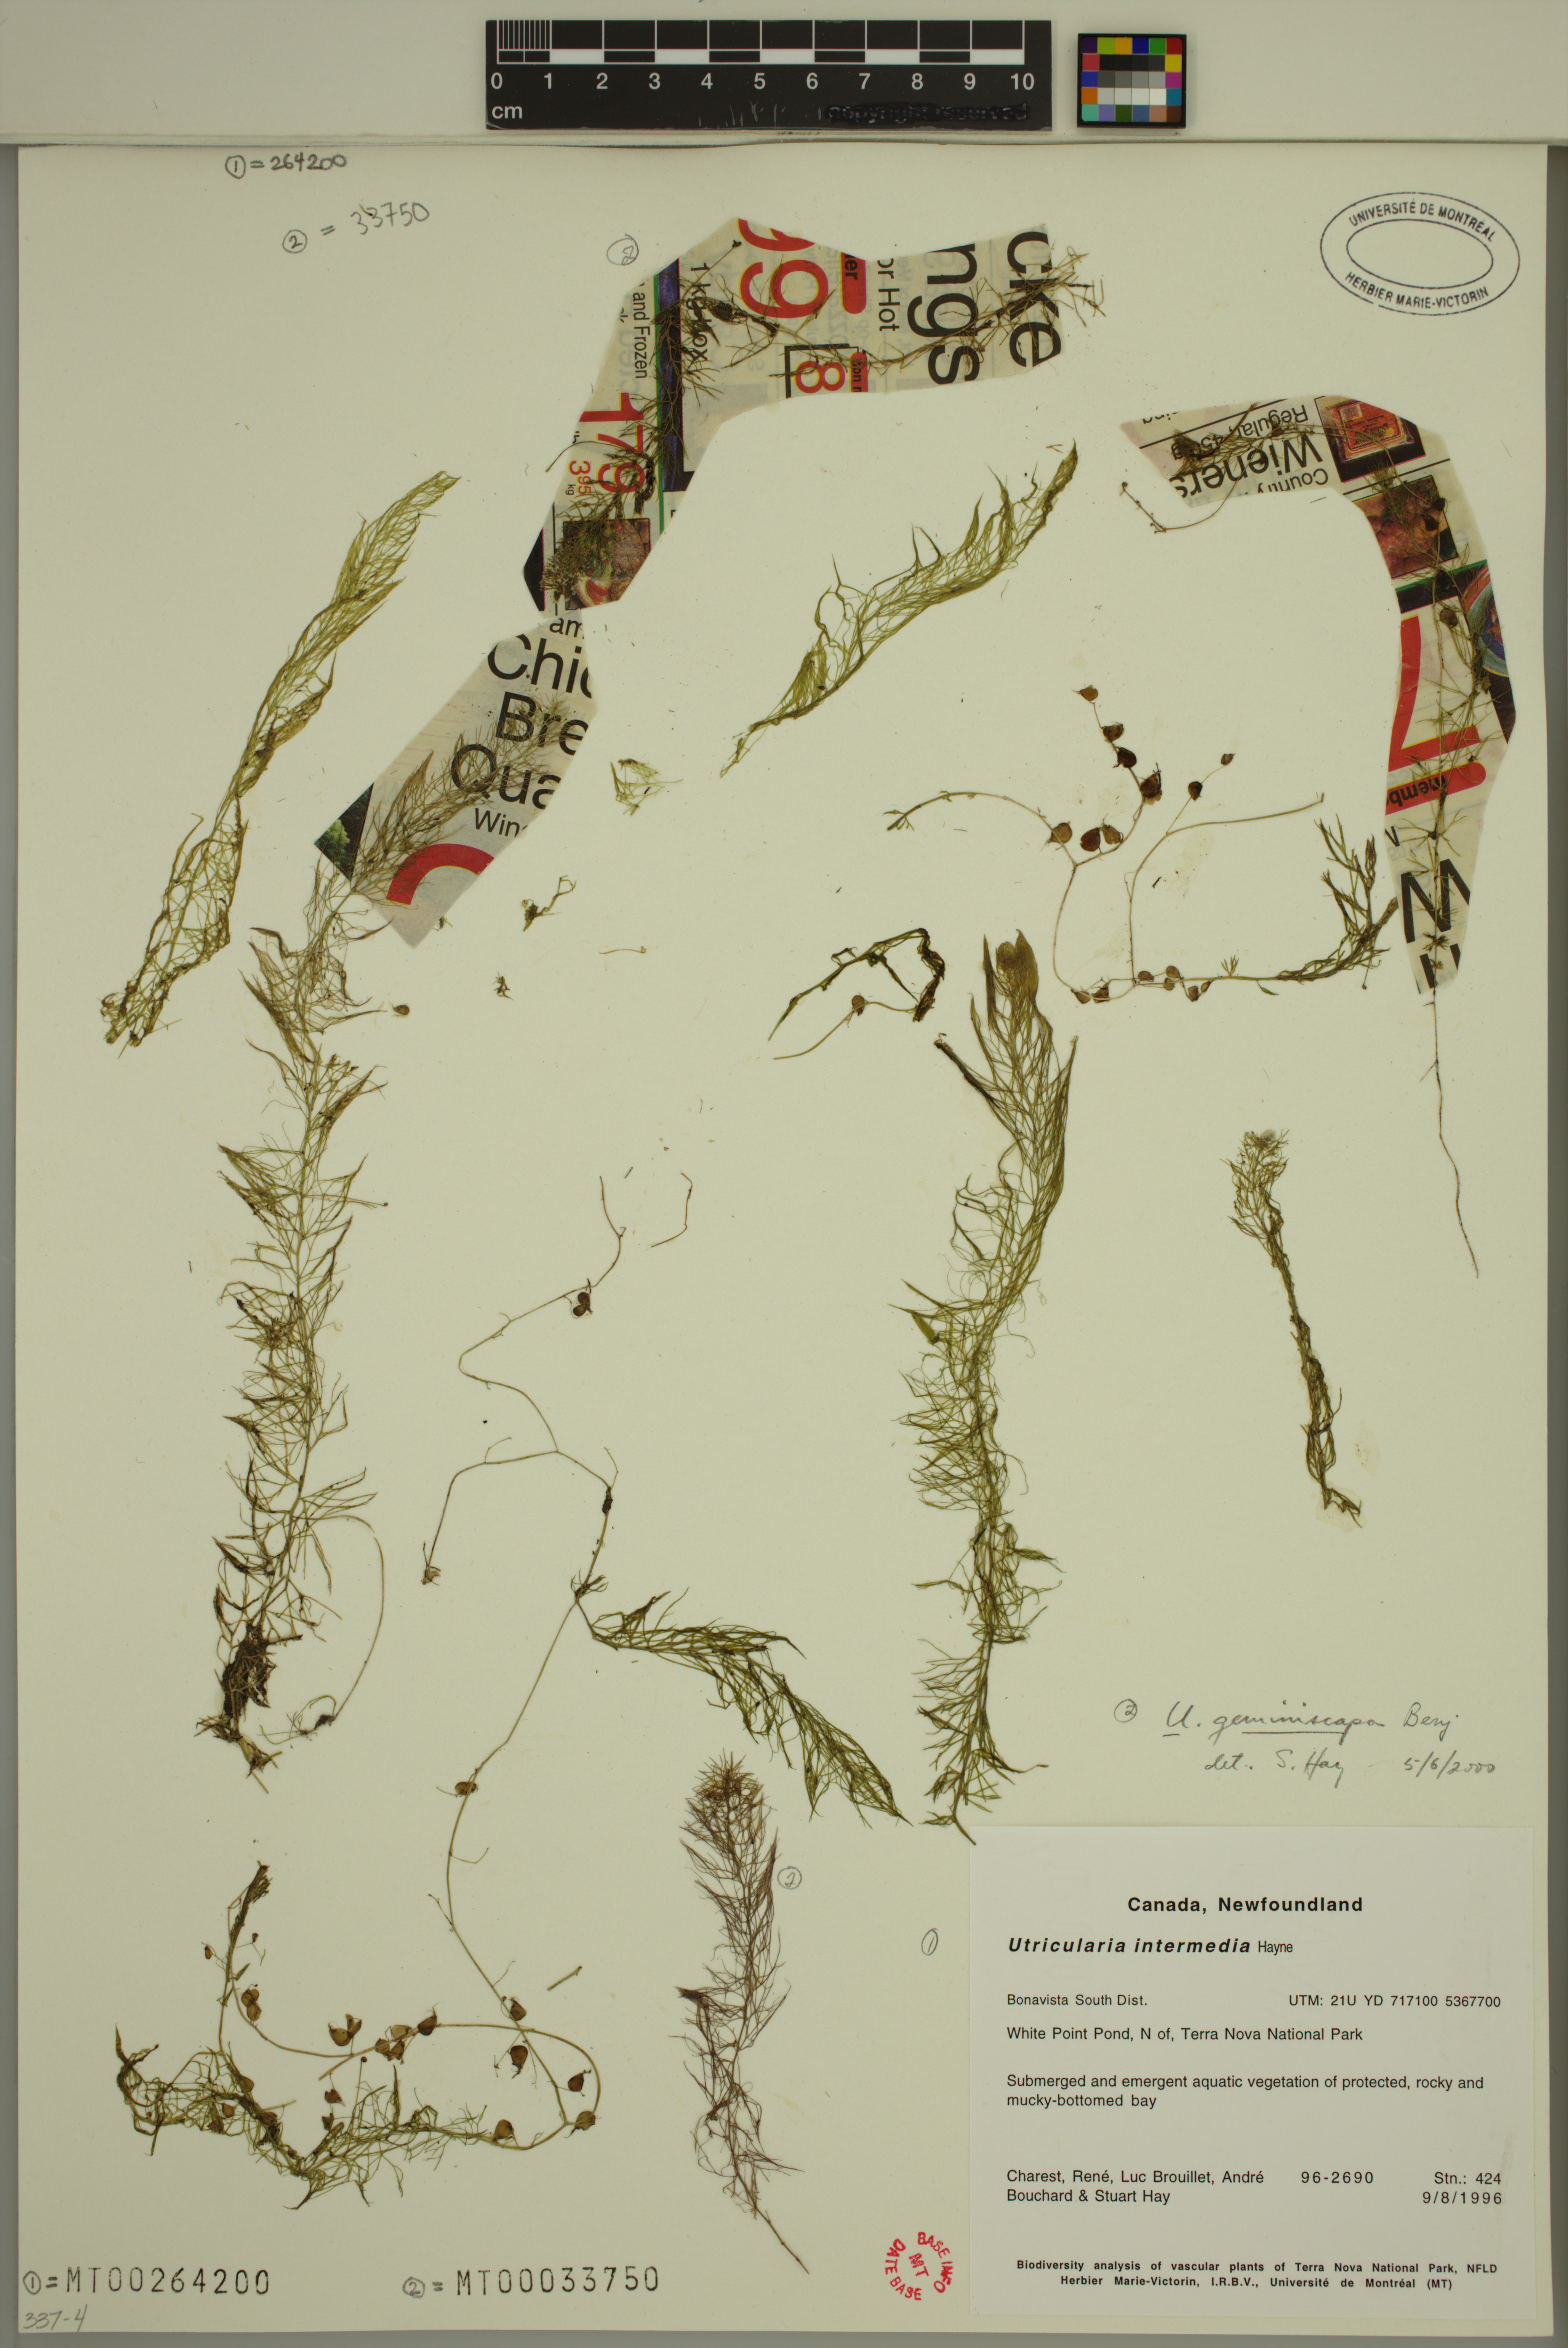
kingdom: Plantae
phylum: Tracheophyta
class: Magnoliopsida
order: Lamiales
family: Lentibulariaceae
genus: Utricularia
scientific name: Utricularia geminiscapa
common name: Hidden-fruit bladderwort
